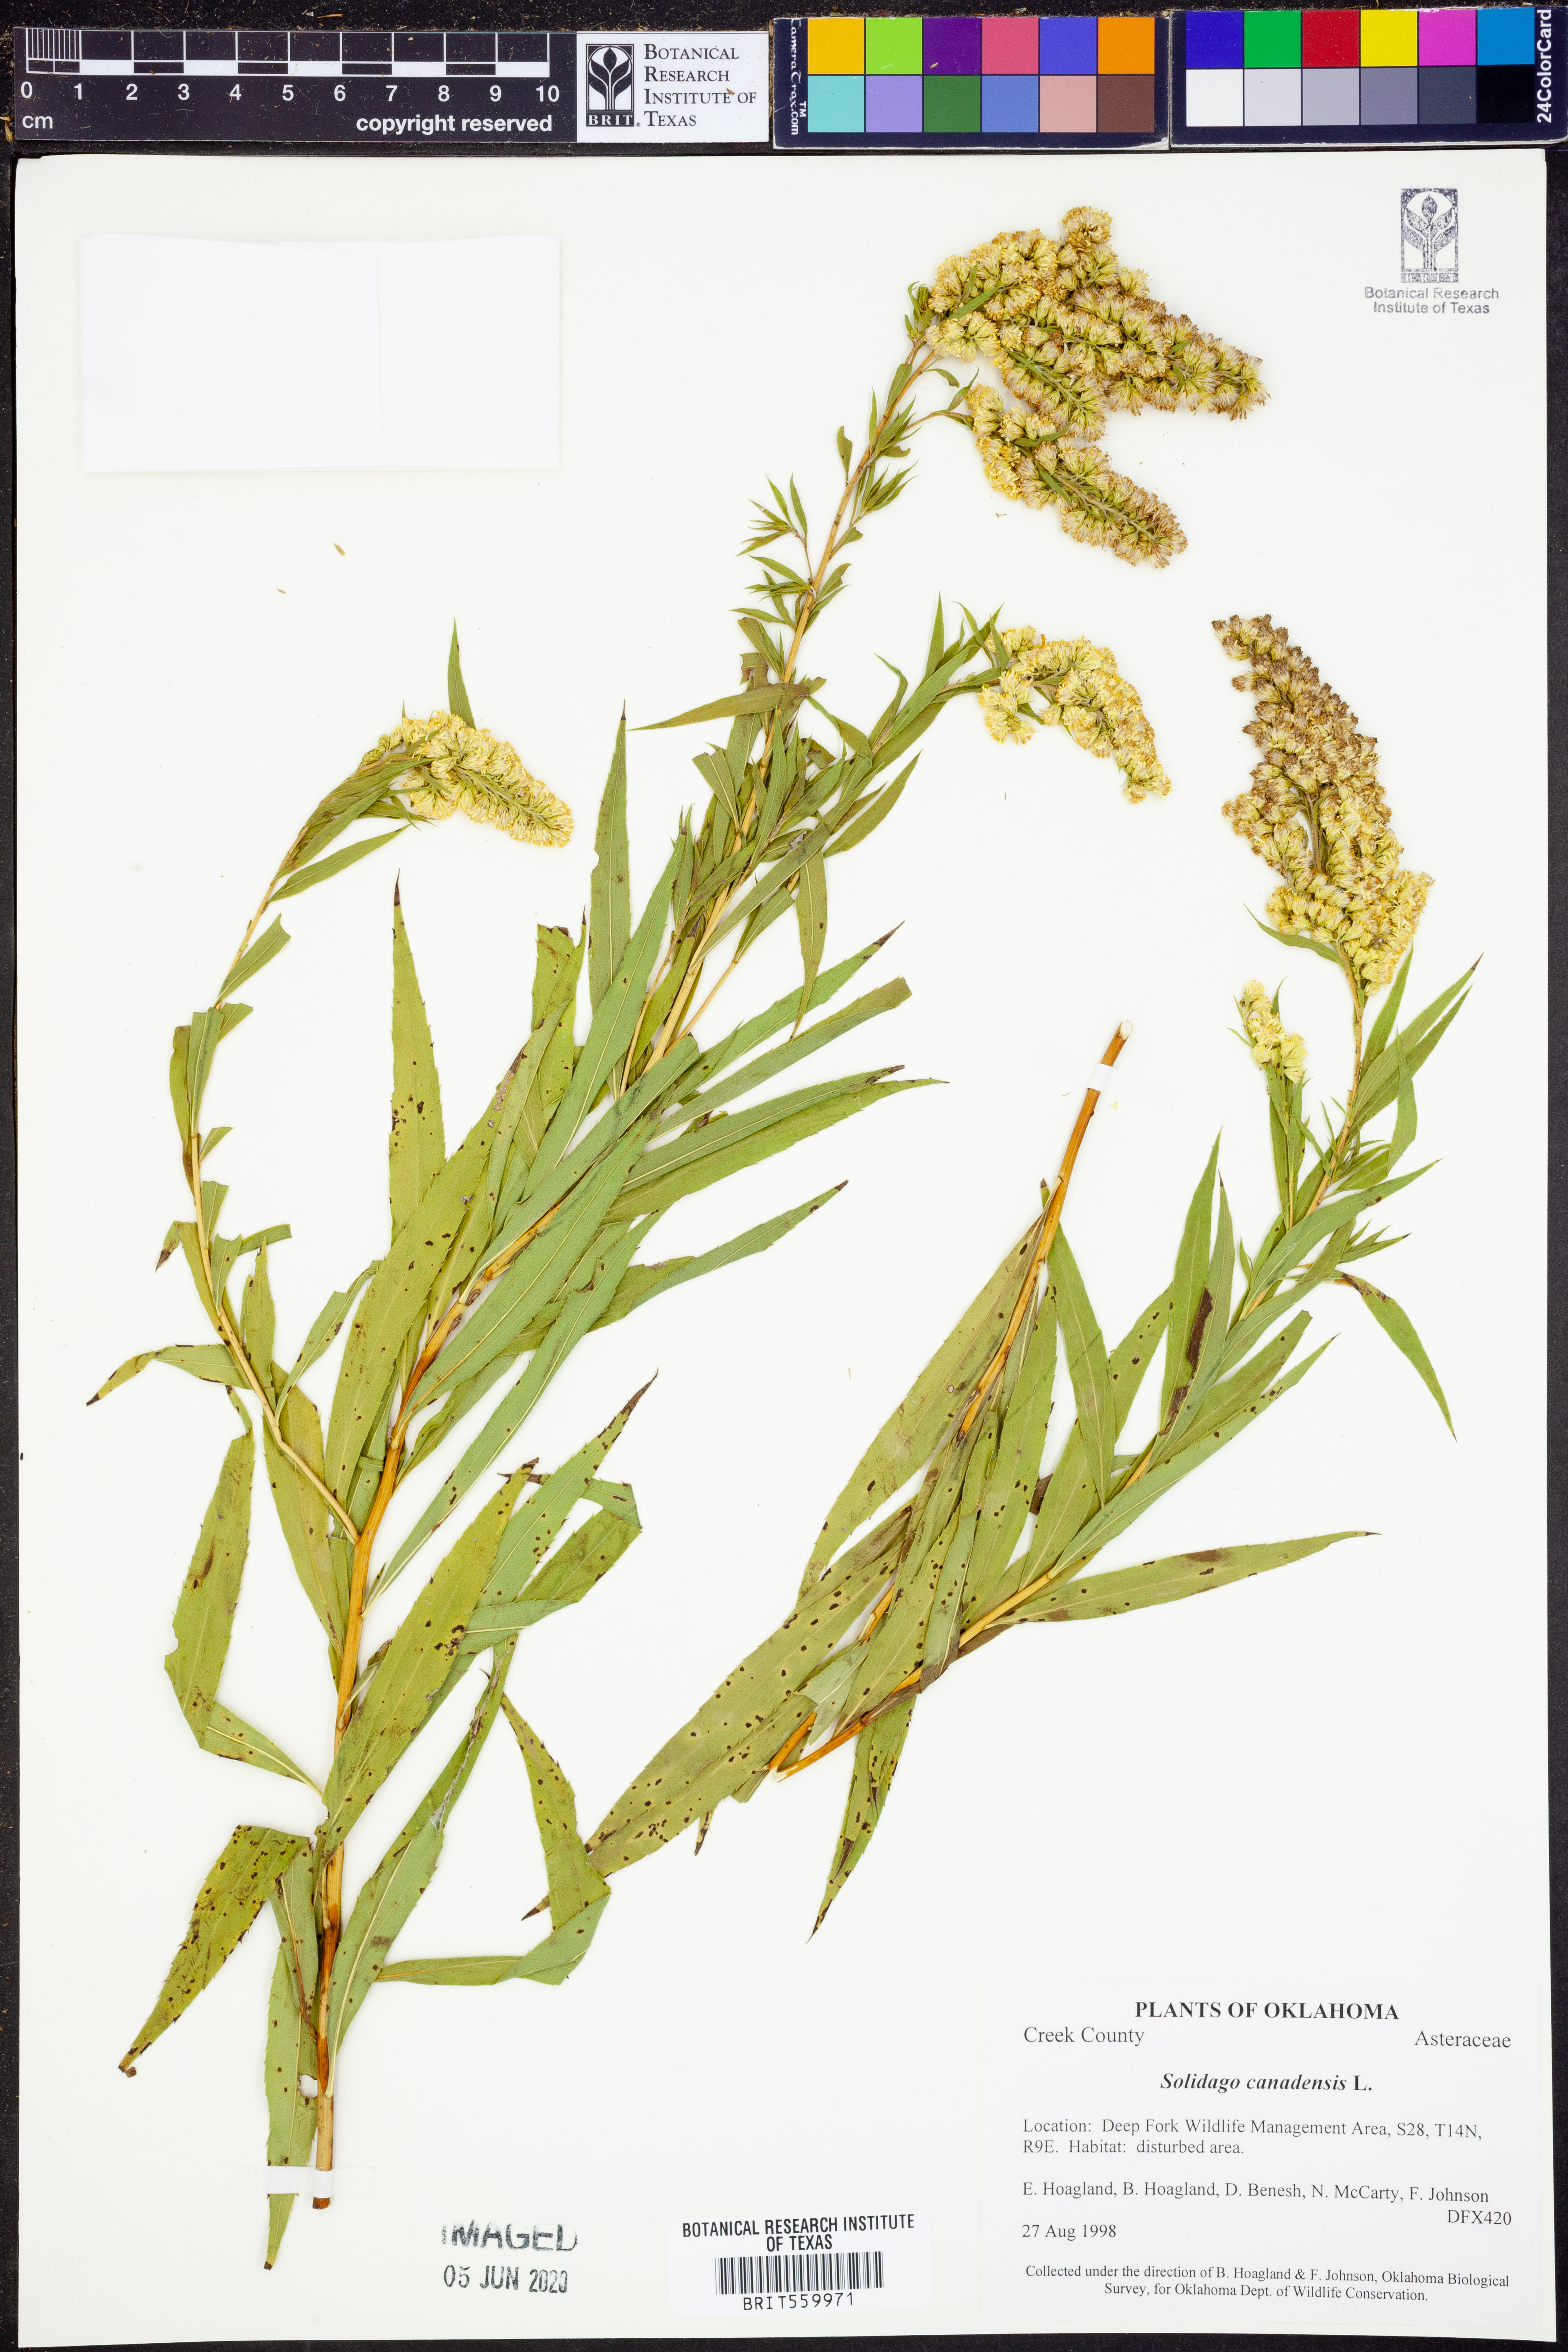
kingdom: Plantae
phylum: Tracheophyta
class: Magnoliopsida
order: Asterales
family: Asteraceae
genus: Solidago
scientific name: Solidago canadensis
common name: Canada goldenrod
